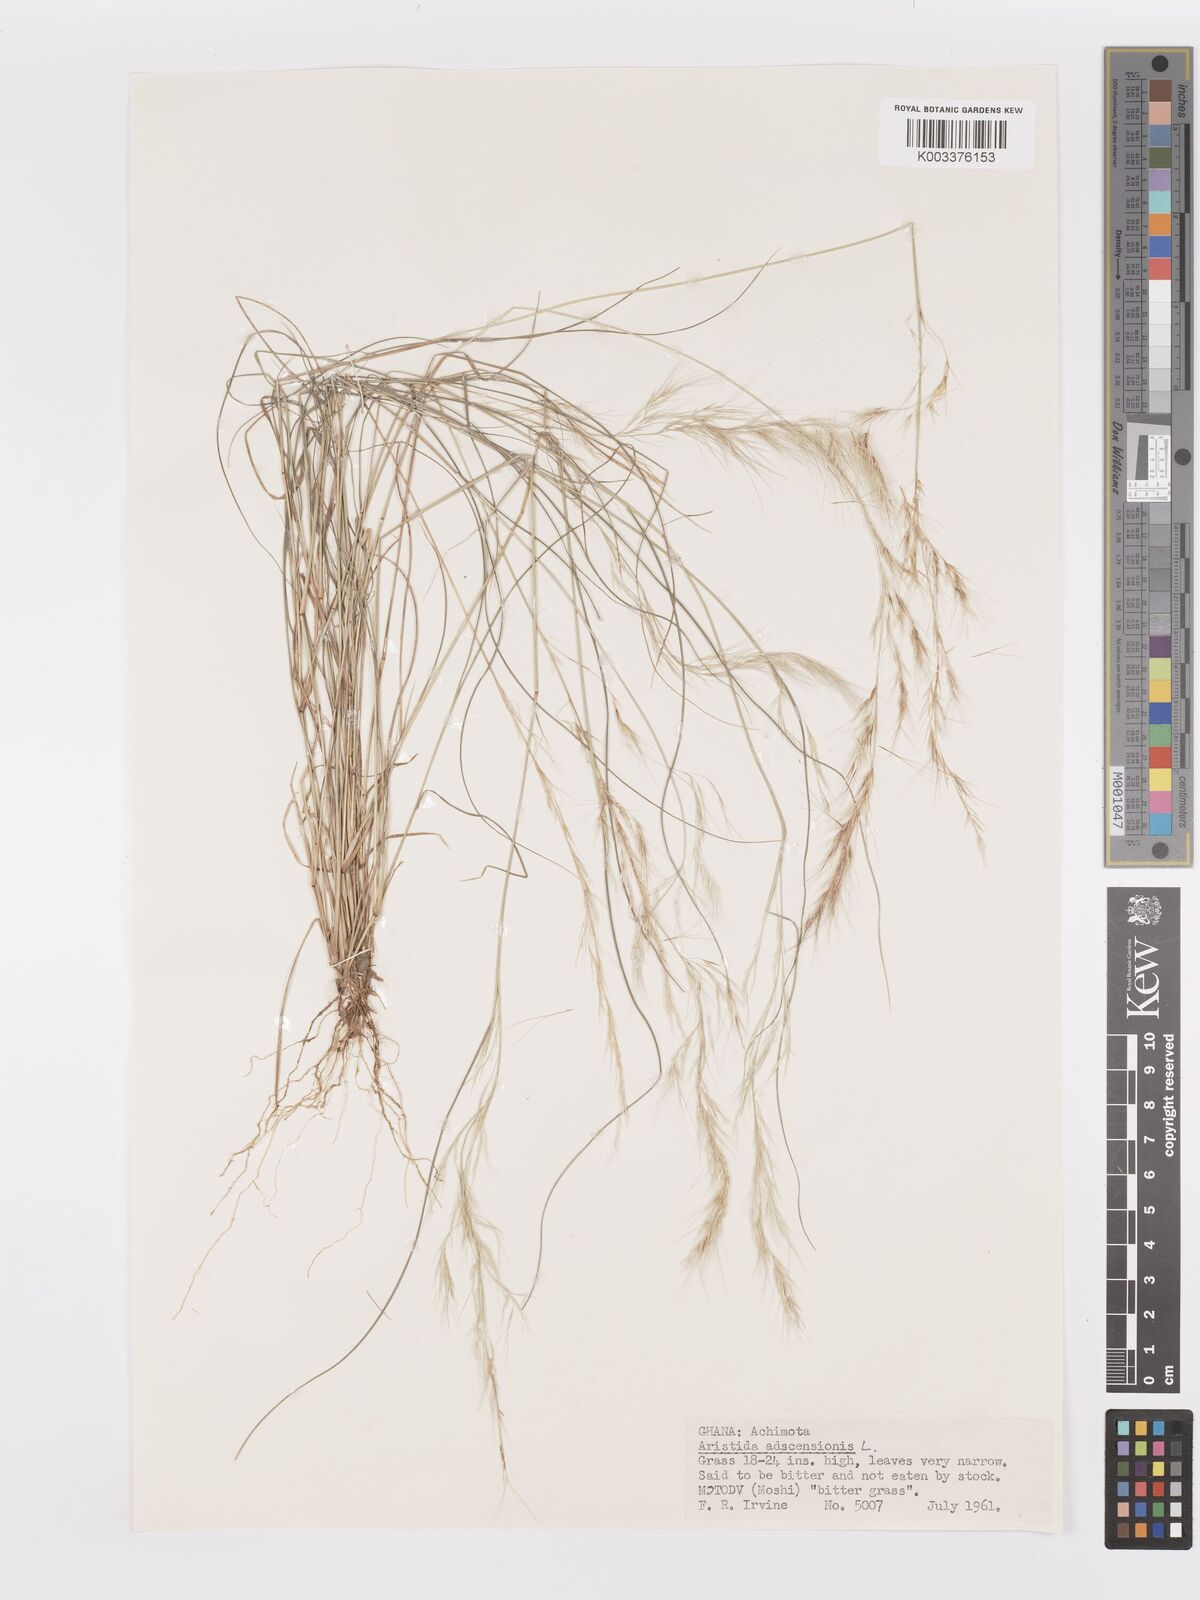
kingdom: Plantae
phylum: Tracheophyta
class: Liliopsida
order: Poales
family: Poaceae
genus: Aristida
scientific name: Aristida adscensionis
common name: Sixweeks threeawn
